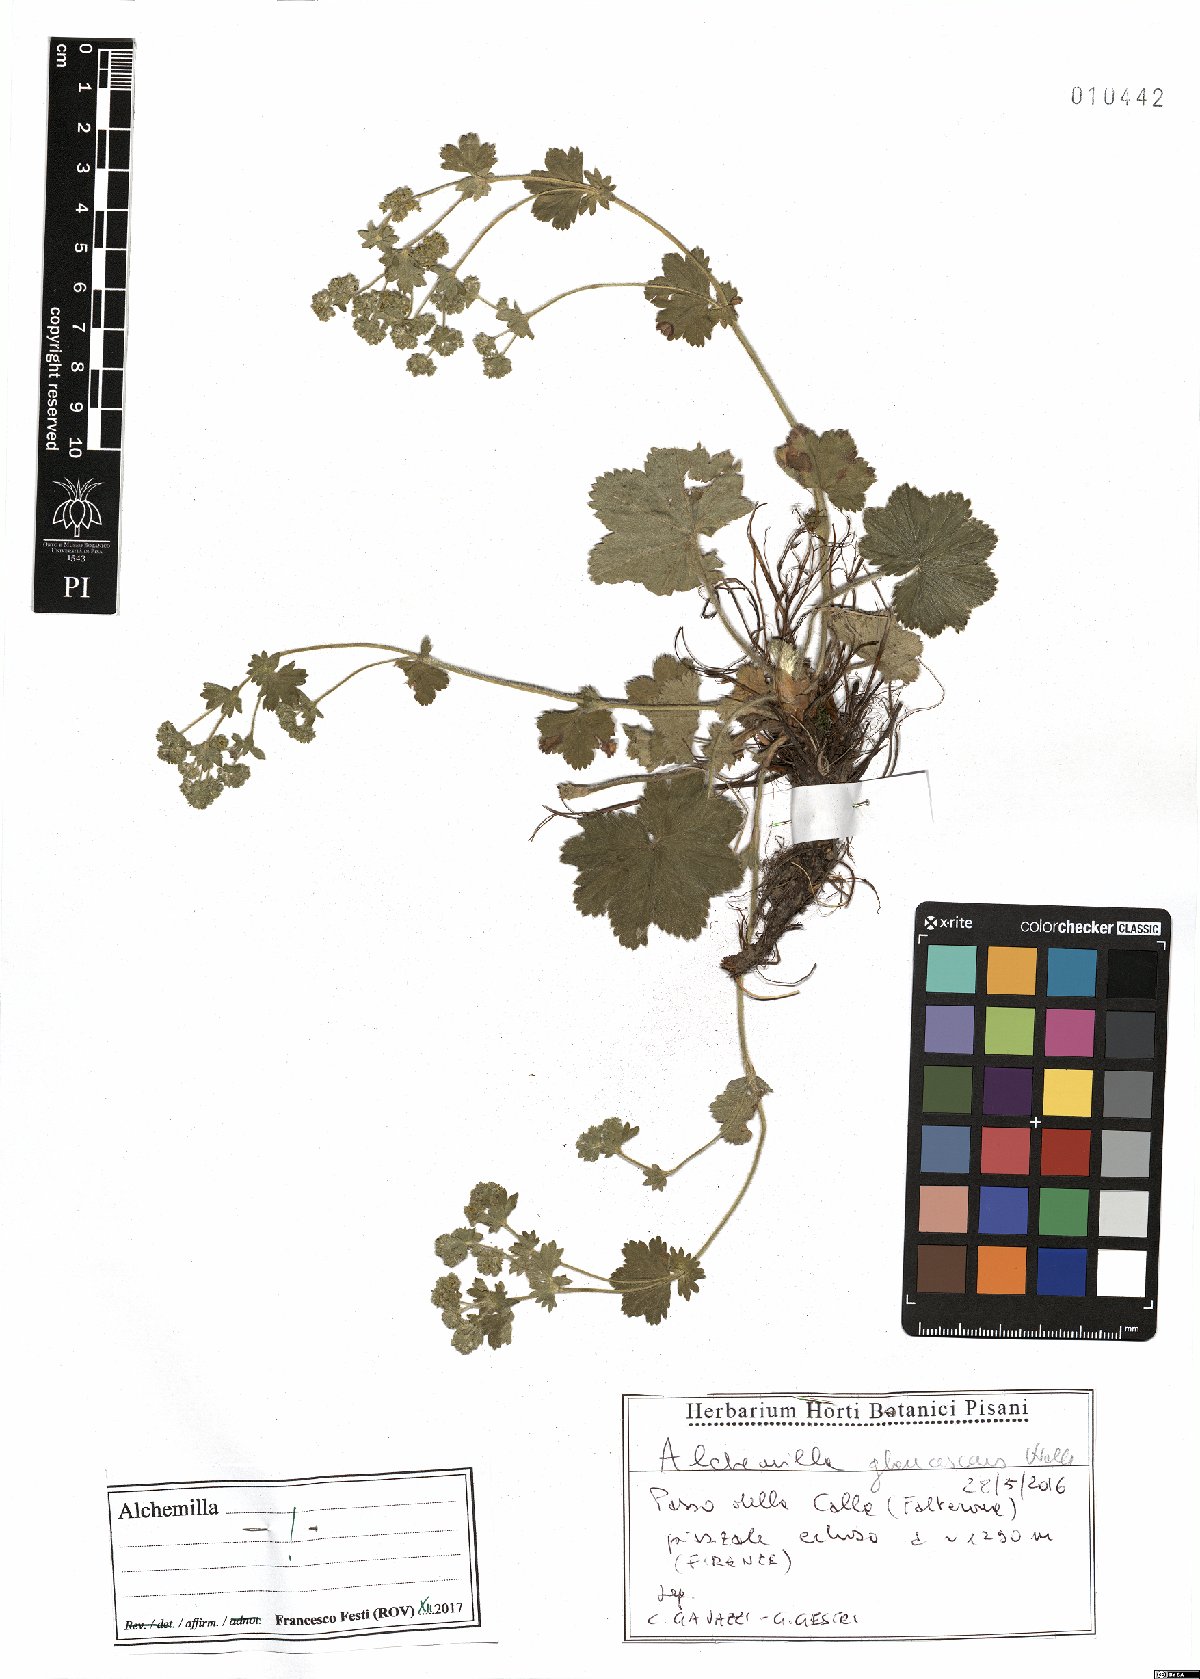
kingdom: Plantae
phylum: Tracheophyta
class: Magnoliopsida
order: Rosales
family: Rosaceae
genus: Alchemilla
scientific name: Alchemilla glaucescens
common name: Silky lady's mantle
